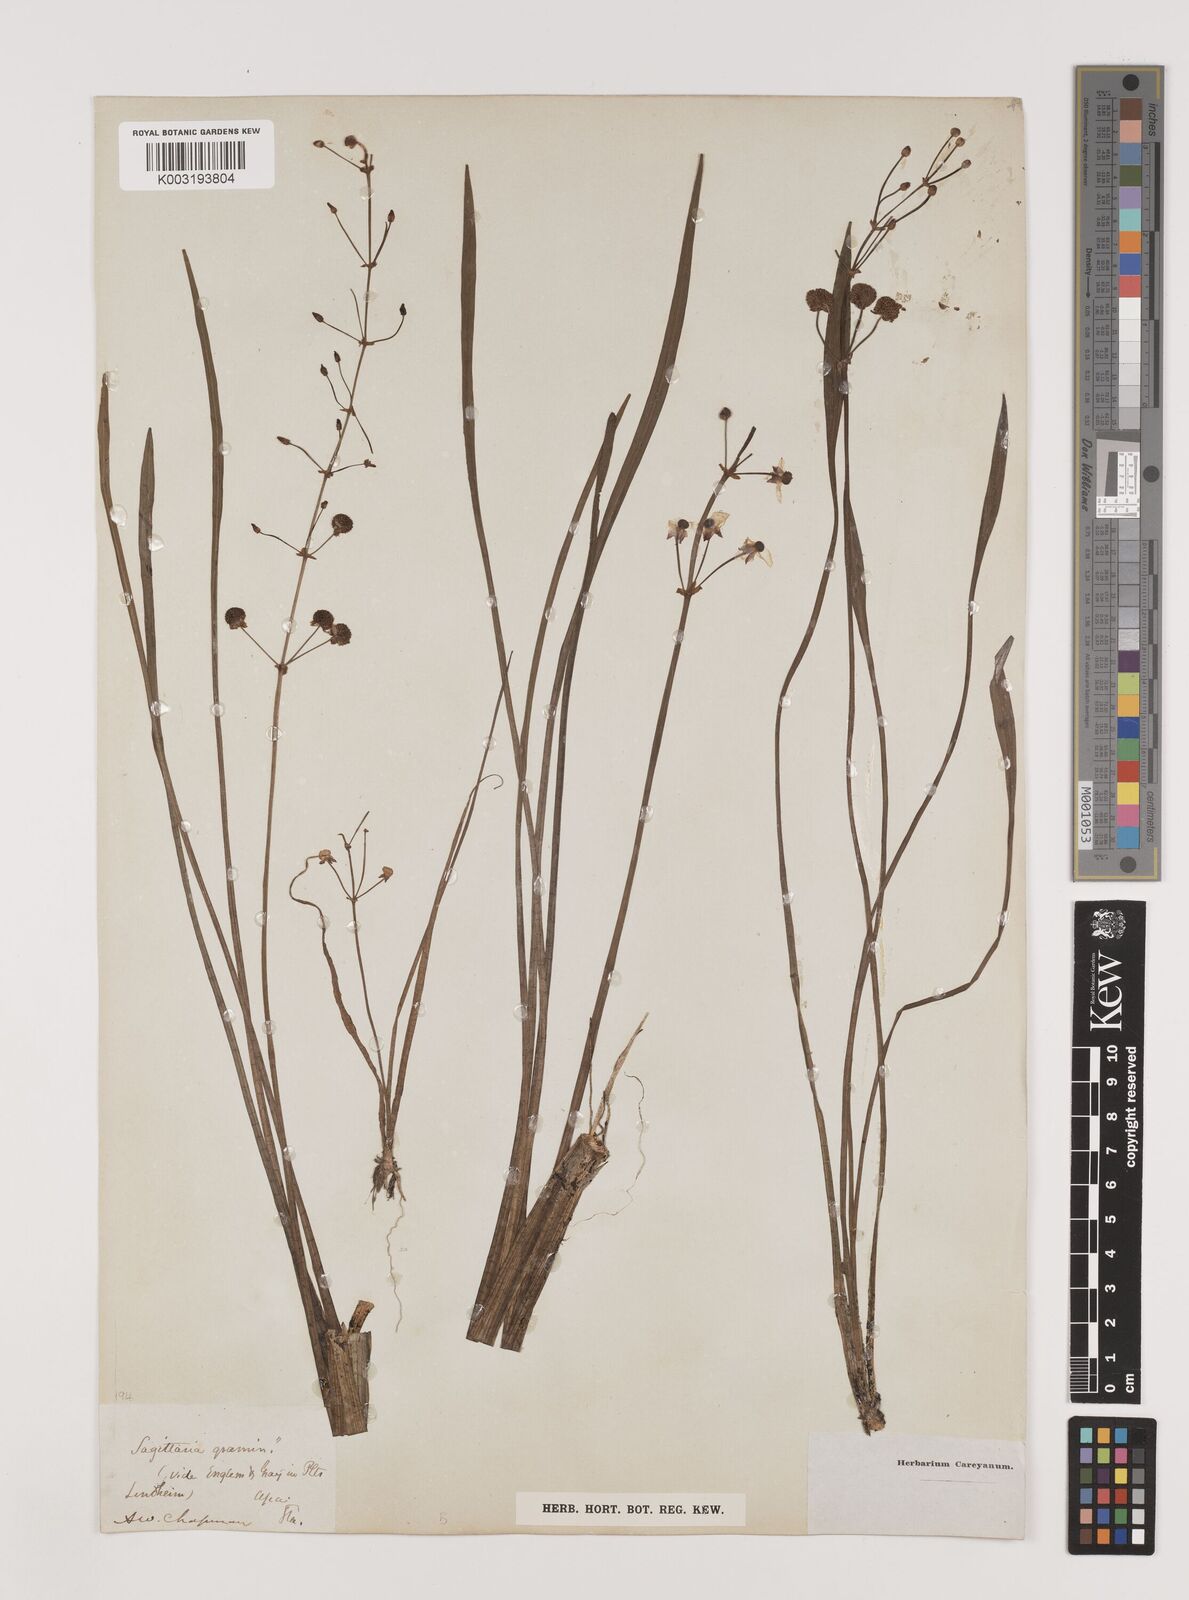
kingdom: Plantae
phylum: Tracheophyta
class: Liliopsida
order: Alismatales
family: Alismataceae
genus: Sagittaria
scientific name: Sagittaria graminea
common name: Grass-leaved arrowhead
